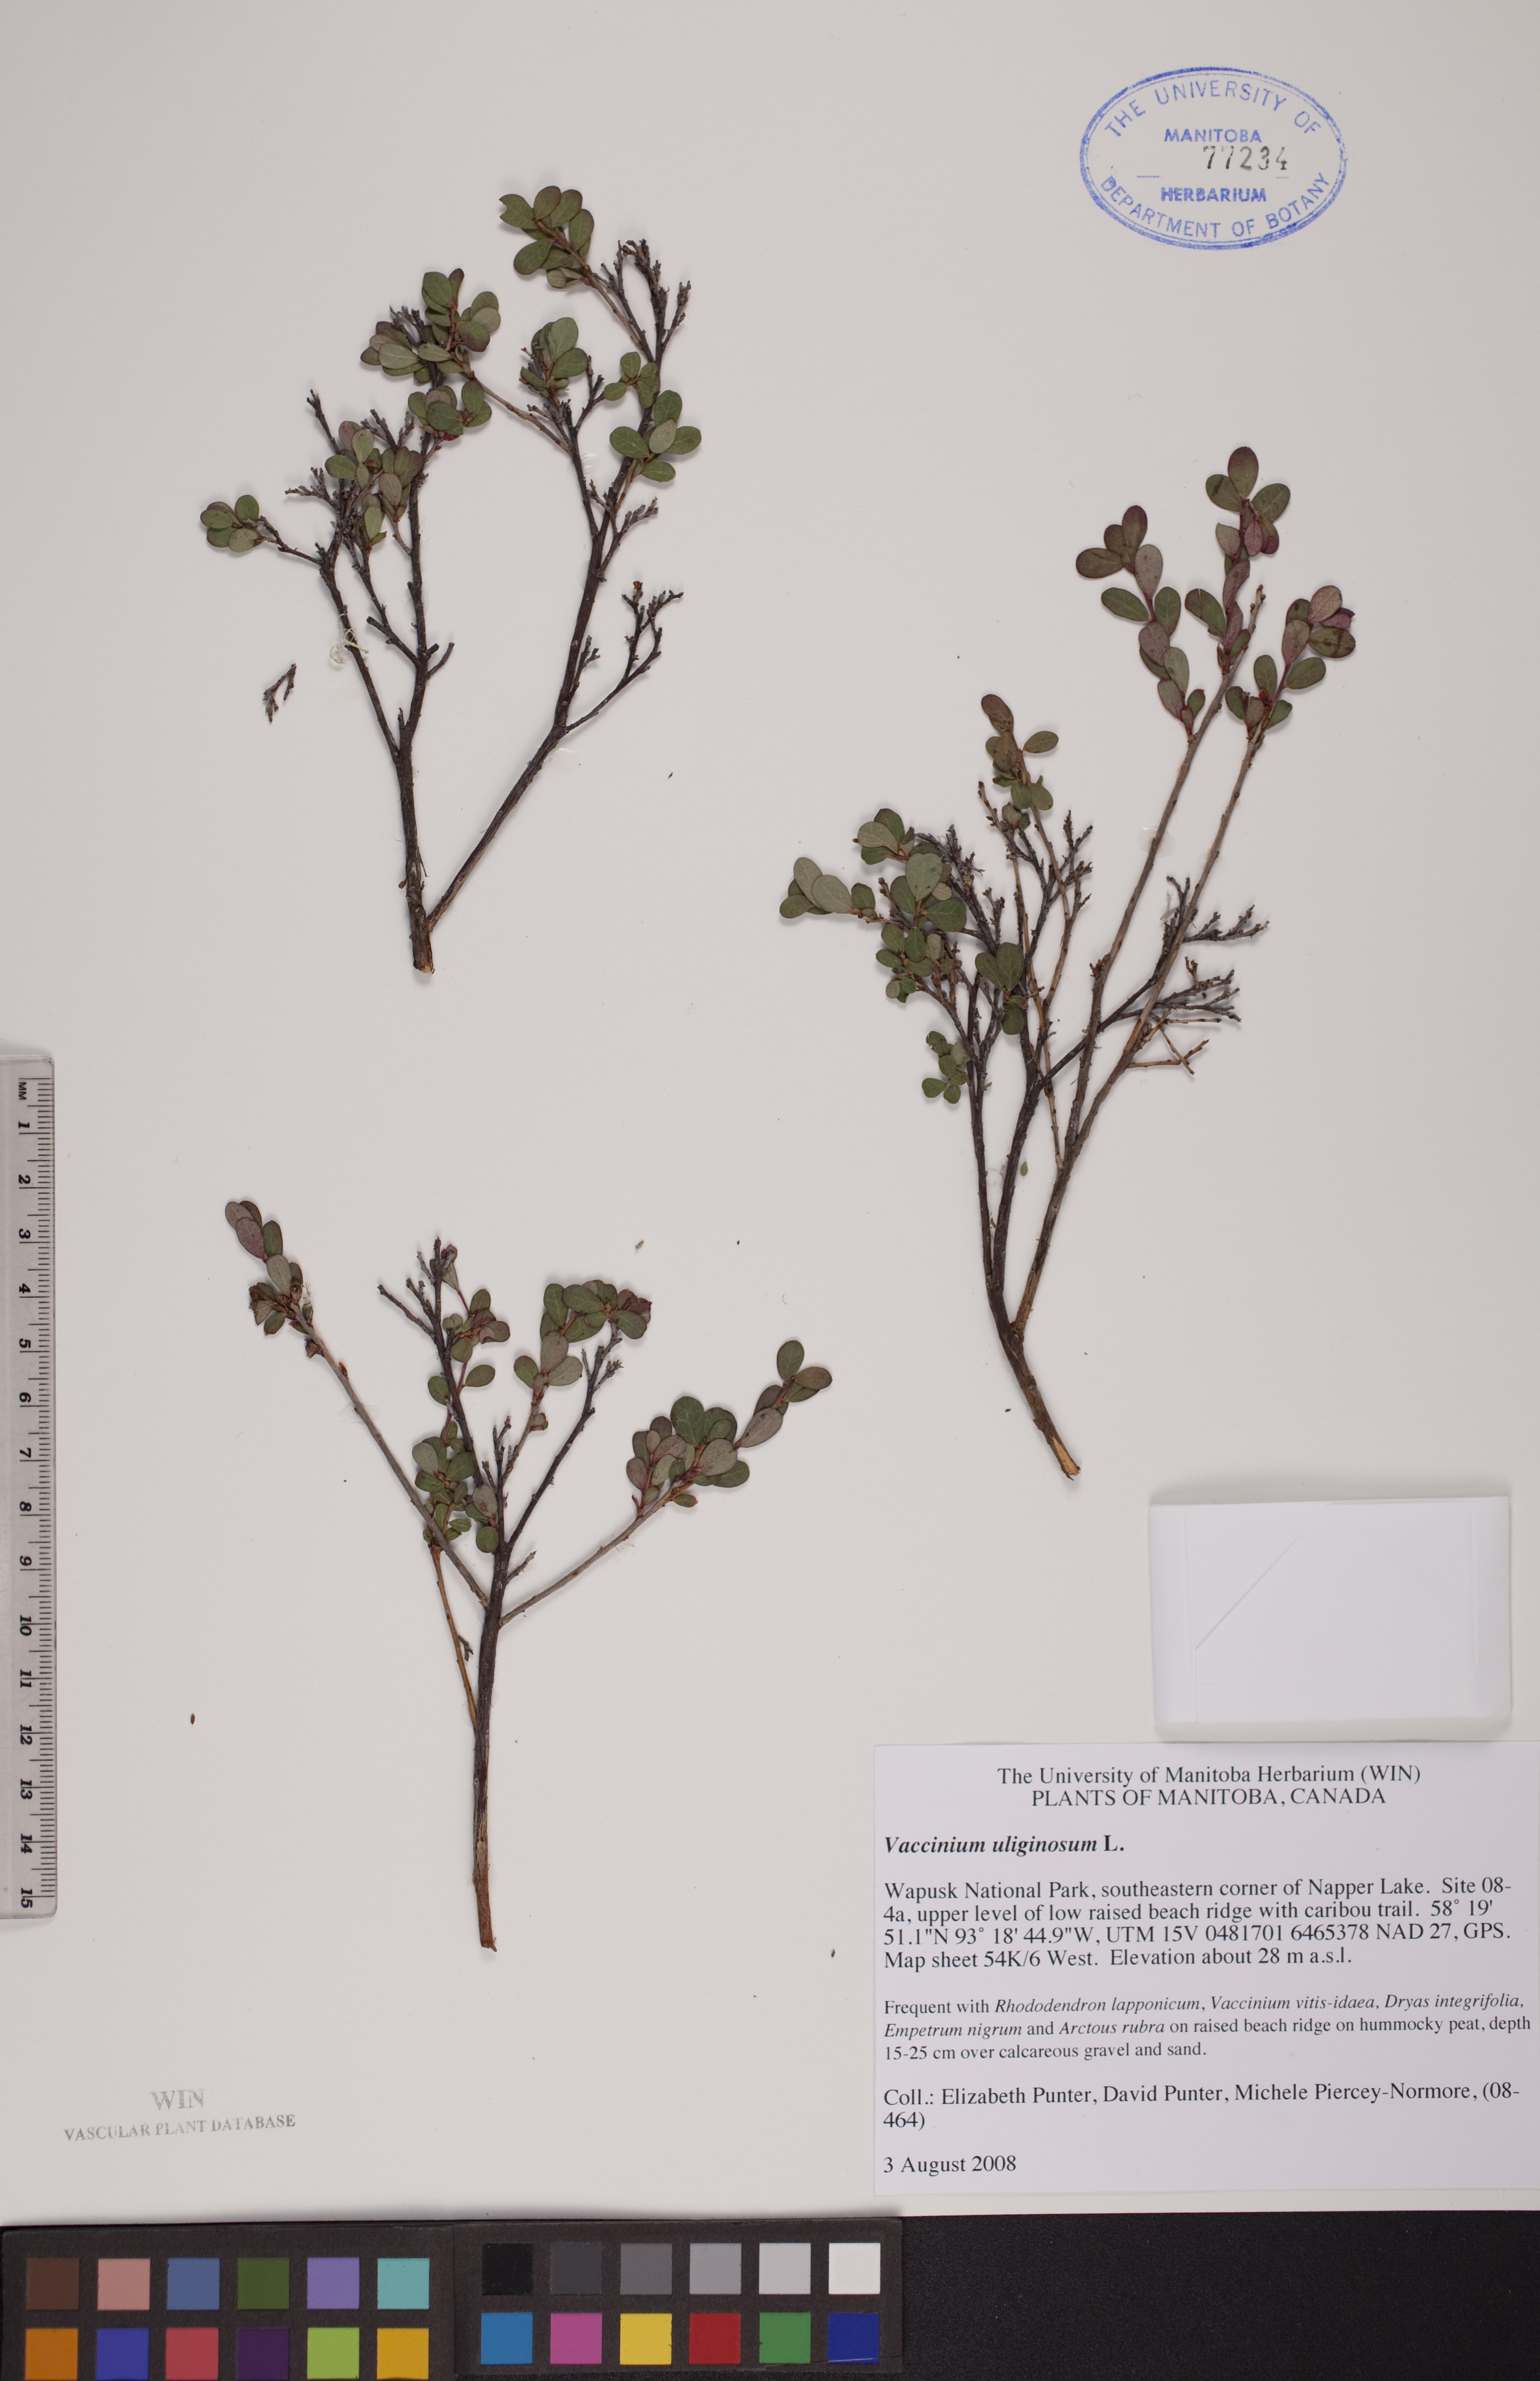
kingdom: Plantae
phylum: Tracheophyta
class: Magnoliopsida
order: Ericales
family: Ericaceae
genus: Vaccinium
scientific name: Vaccinium uliginosum
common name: Bog bilberry
